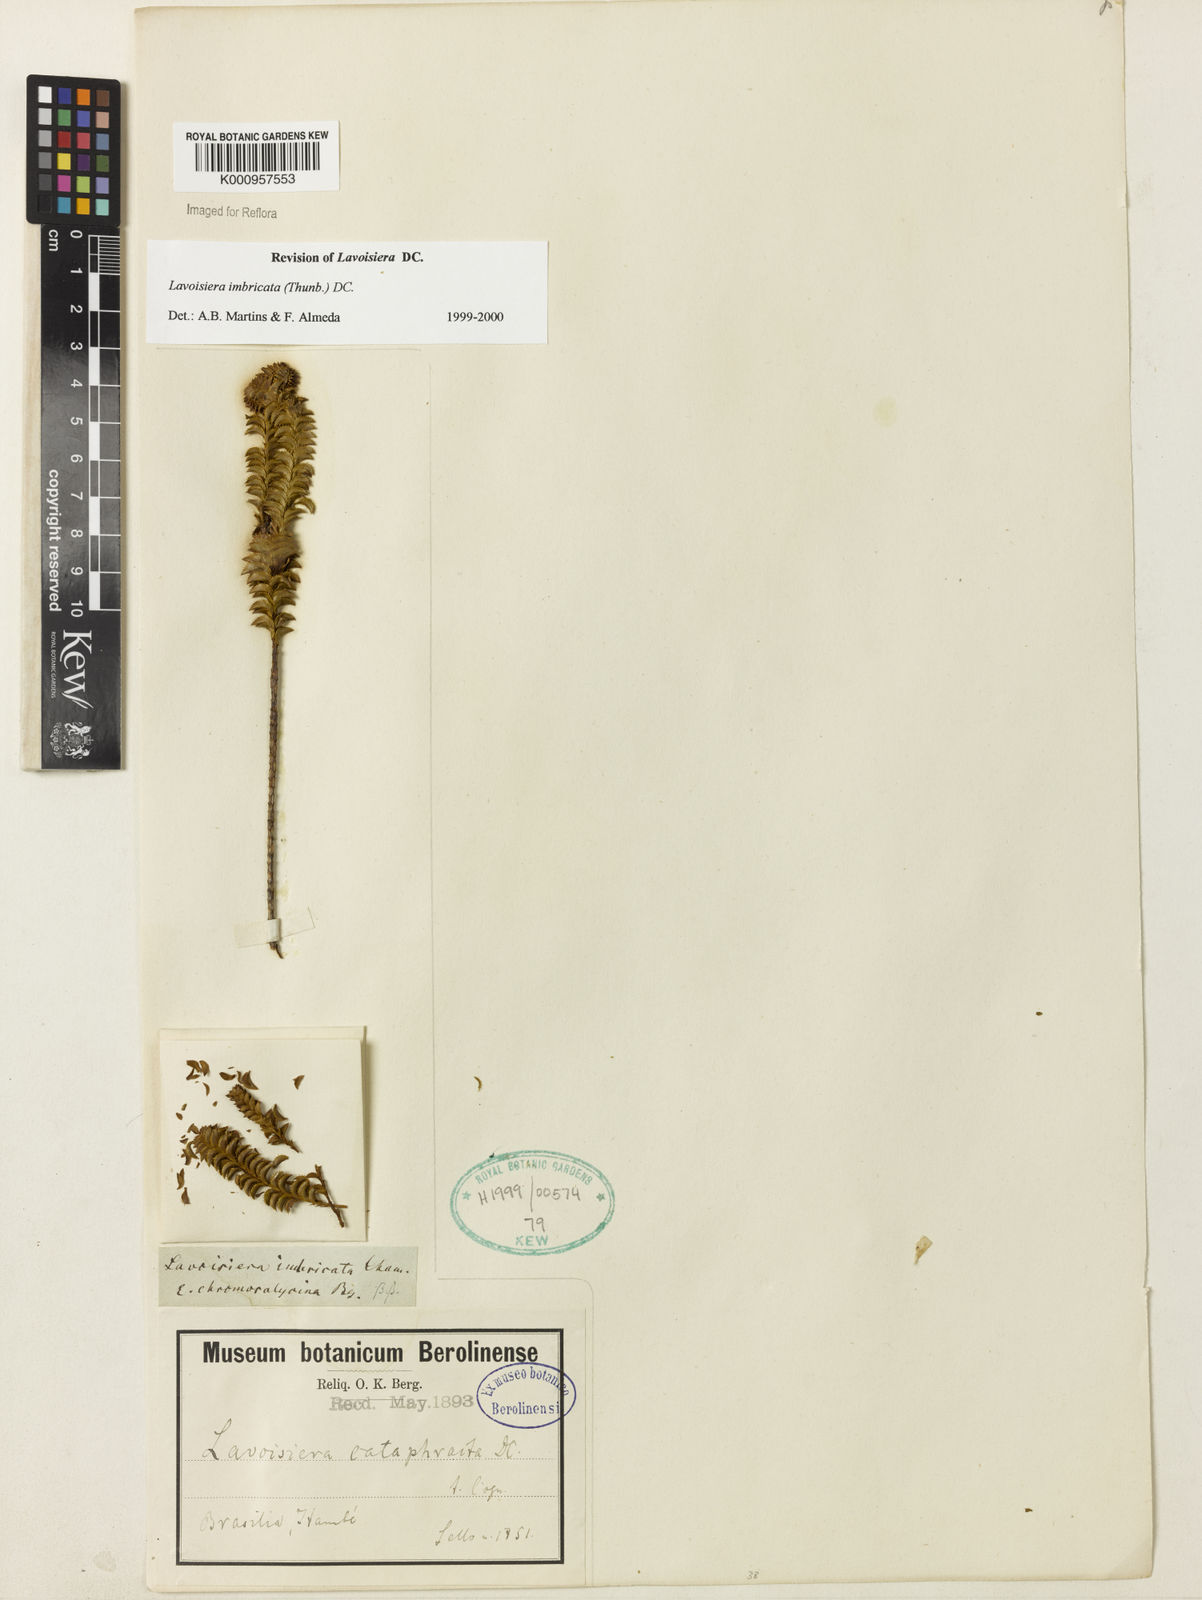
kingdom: Plantae
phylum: Tracheophyta
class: Magnoliopsida
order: Myrtales
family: Melastomataceae
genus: Microlicia
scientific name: Microlicia cataphracta
